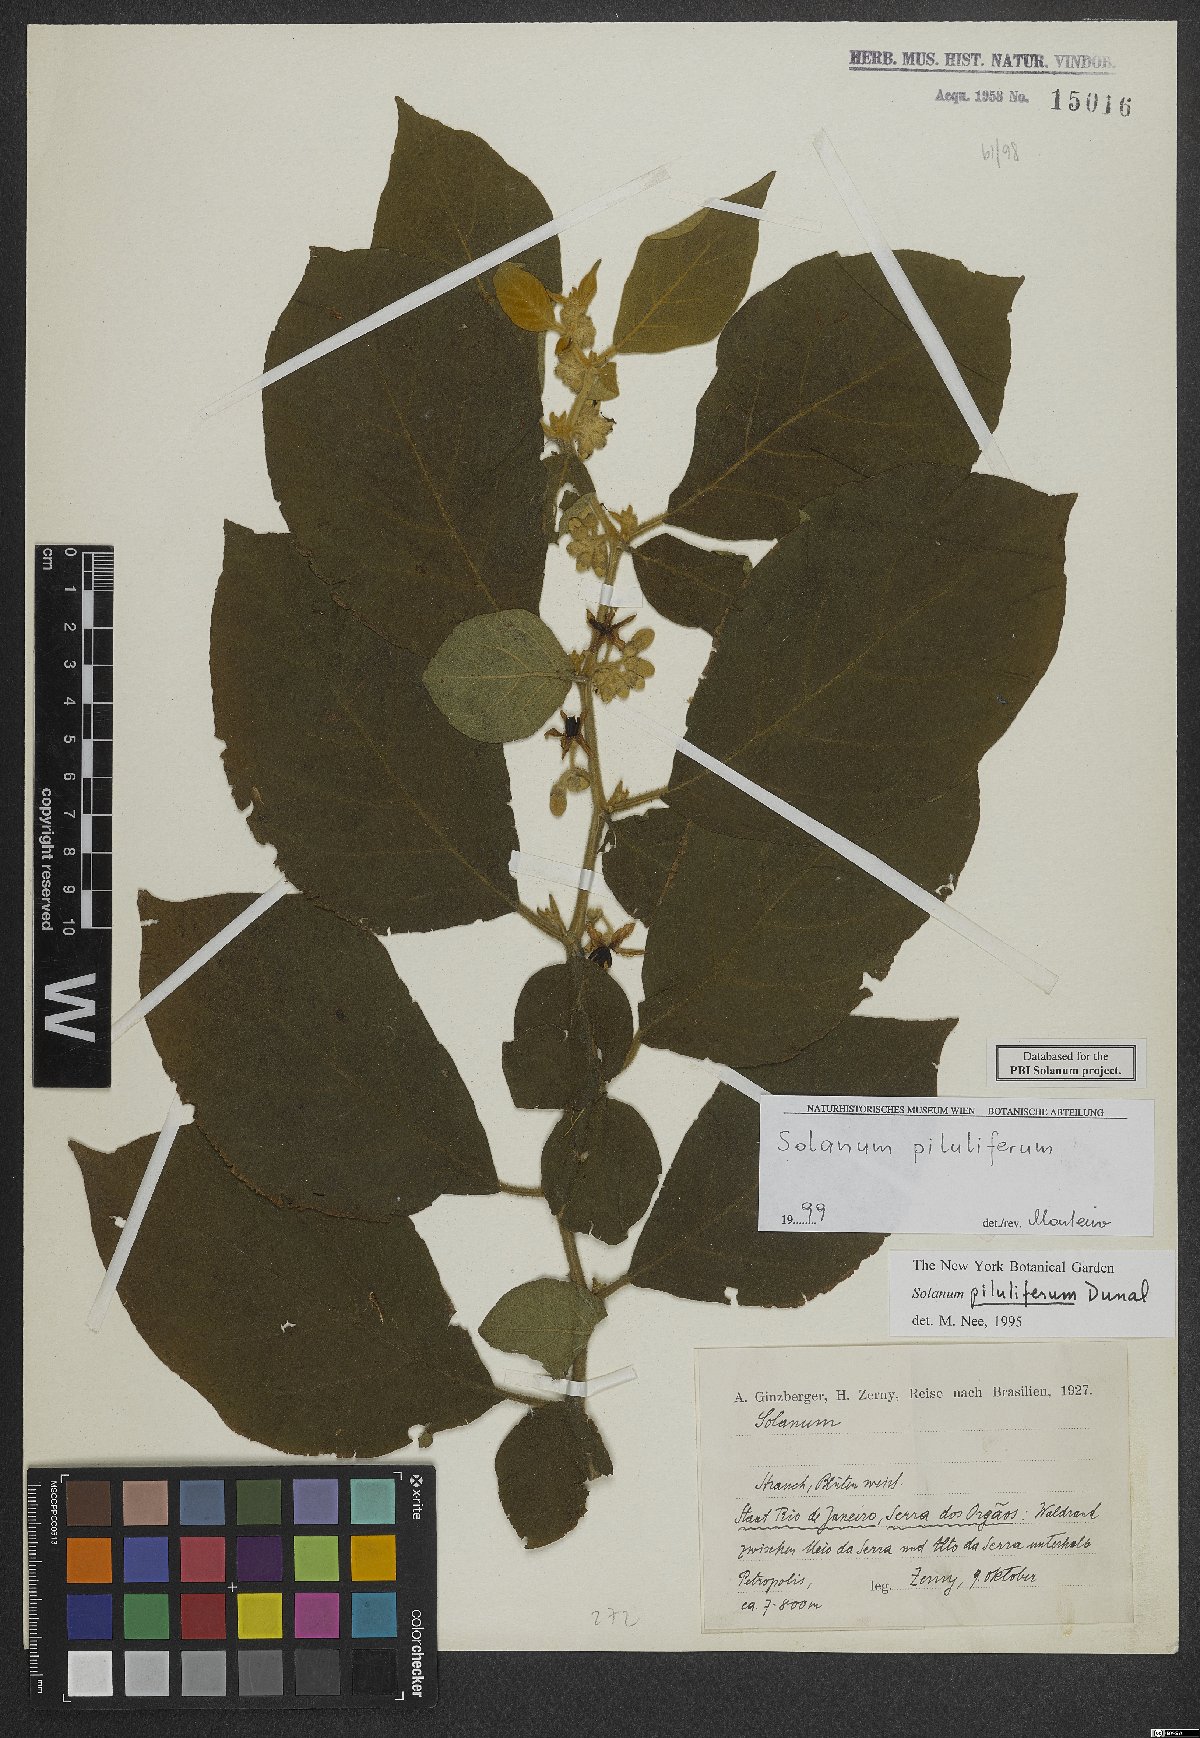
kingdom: Plantae
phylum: Tracheophyta
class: Magnoliopsida
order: Solanales
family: Solanaceae
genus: Solanum
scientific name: Solanum piluliferum
